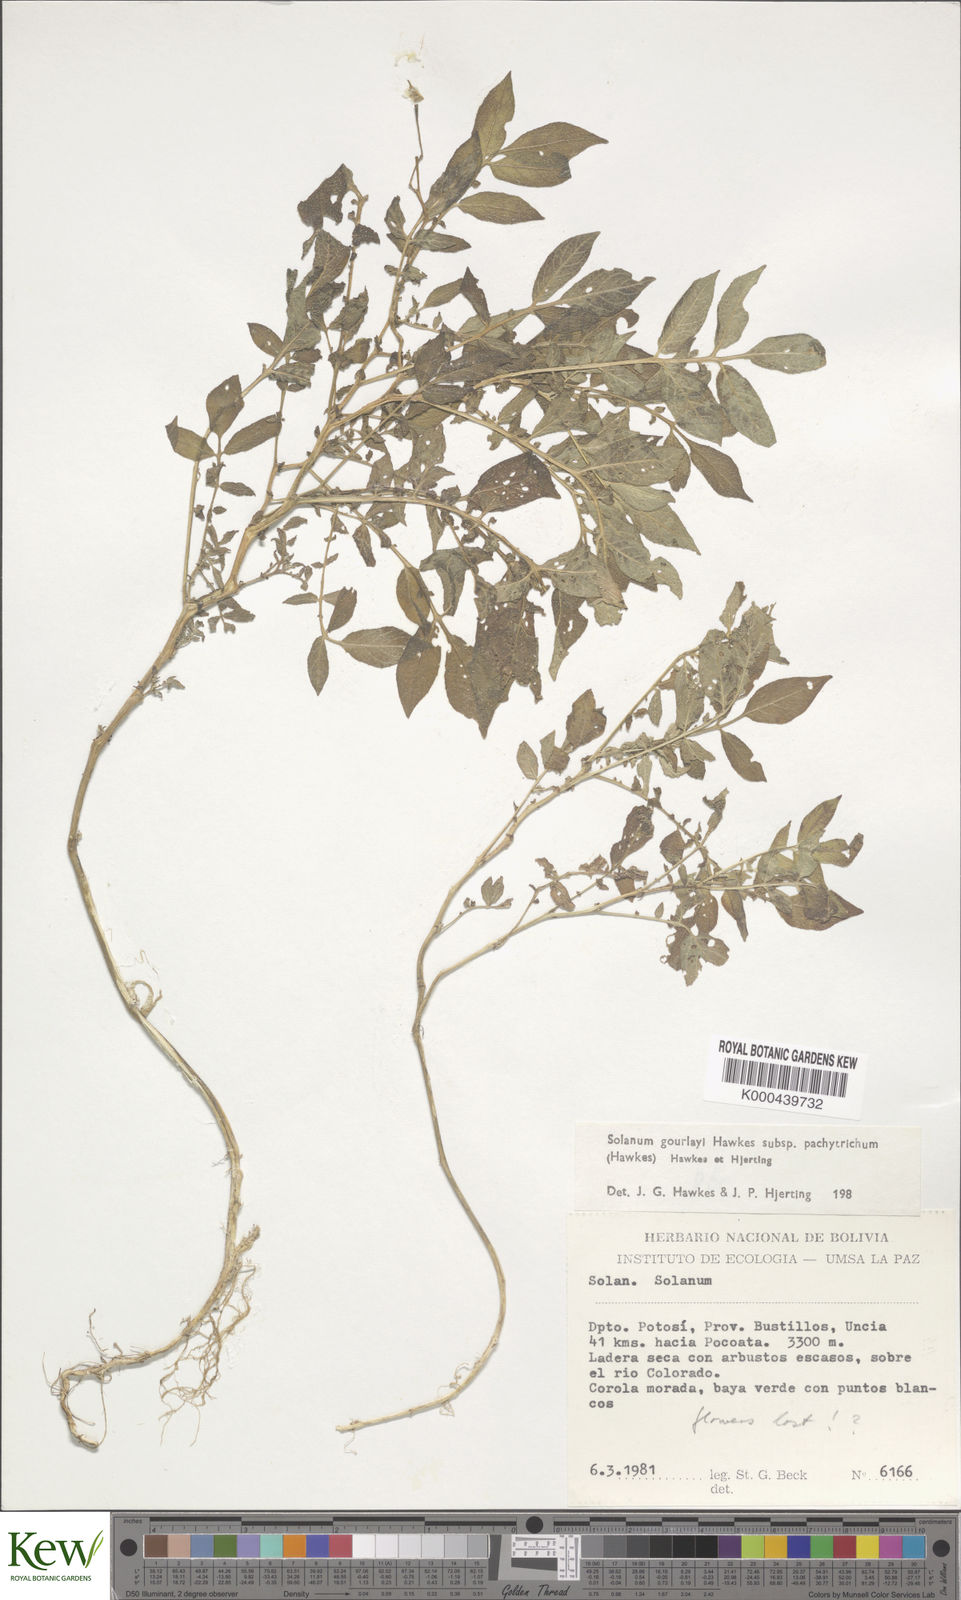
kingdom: Plantae
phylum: Tracheophyta
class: Magnoliopsida
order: Solanales
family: Solanaceae
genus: Solanum
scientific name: Solanum brevicaule
